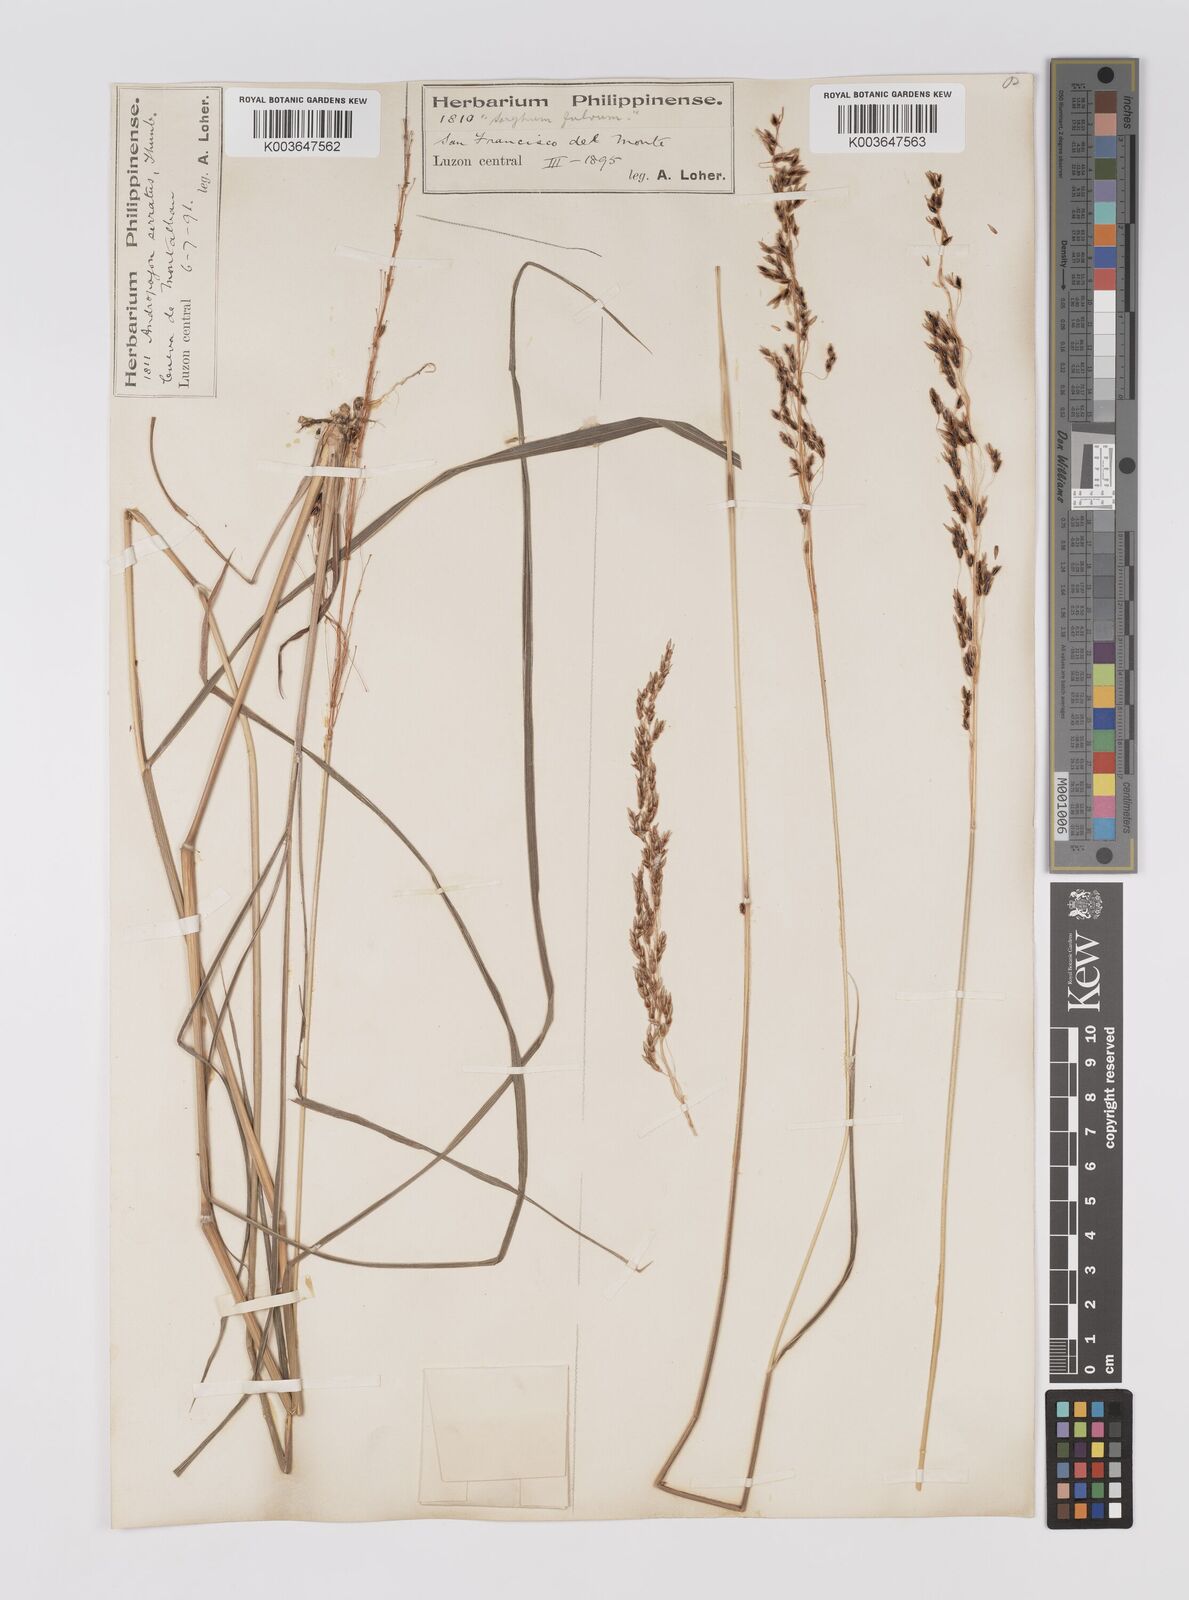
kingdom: Plantae
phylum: Tracheophyta
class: Liliopsida
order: Poales
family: Poaceae
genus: Sorghum
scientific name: Sorghum nitidum
